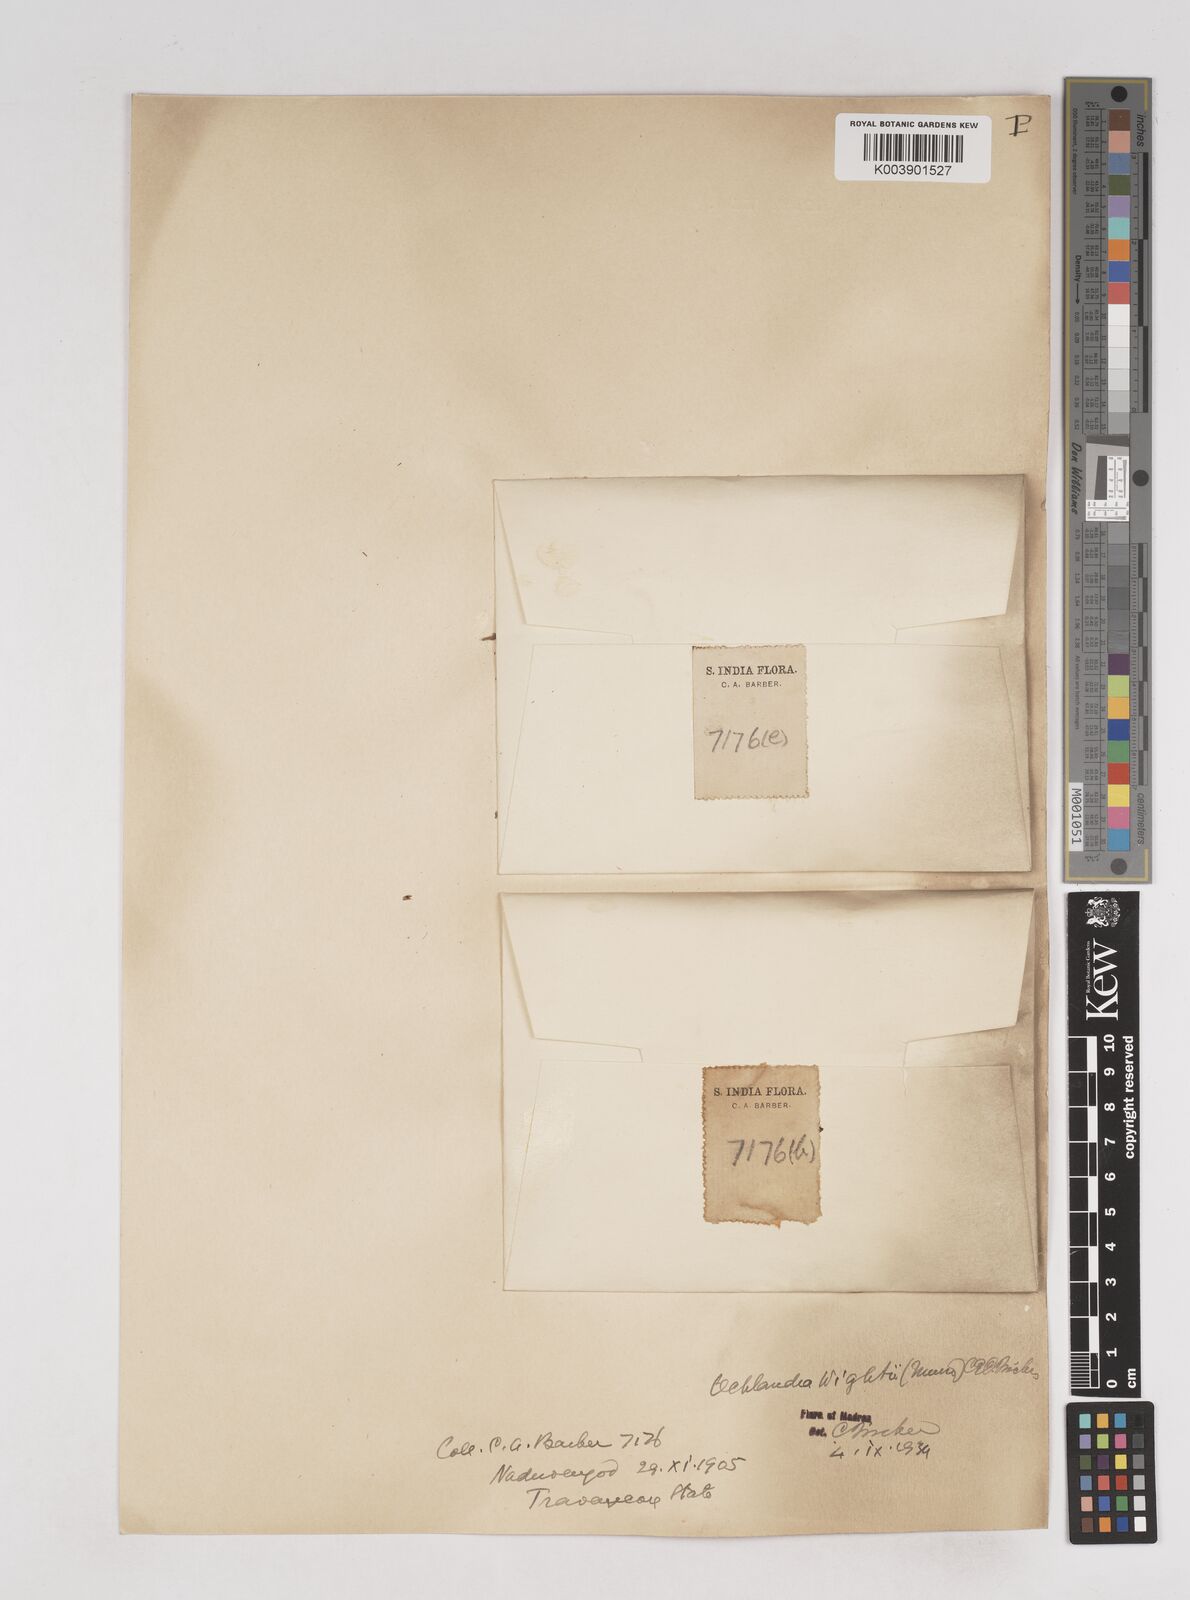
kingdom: Plantae
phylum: Tracheophyta
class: Liliopsida
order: Poales
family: Poaceae
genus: Ochlandra
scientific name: Ochlandra wightii
